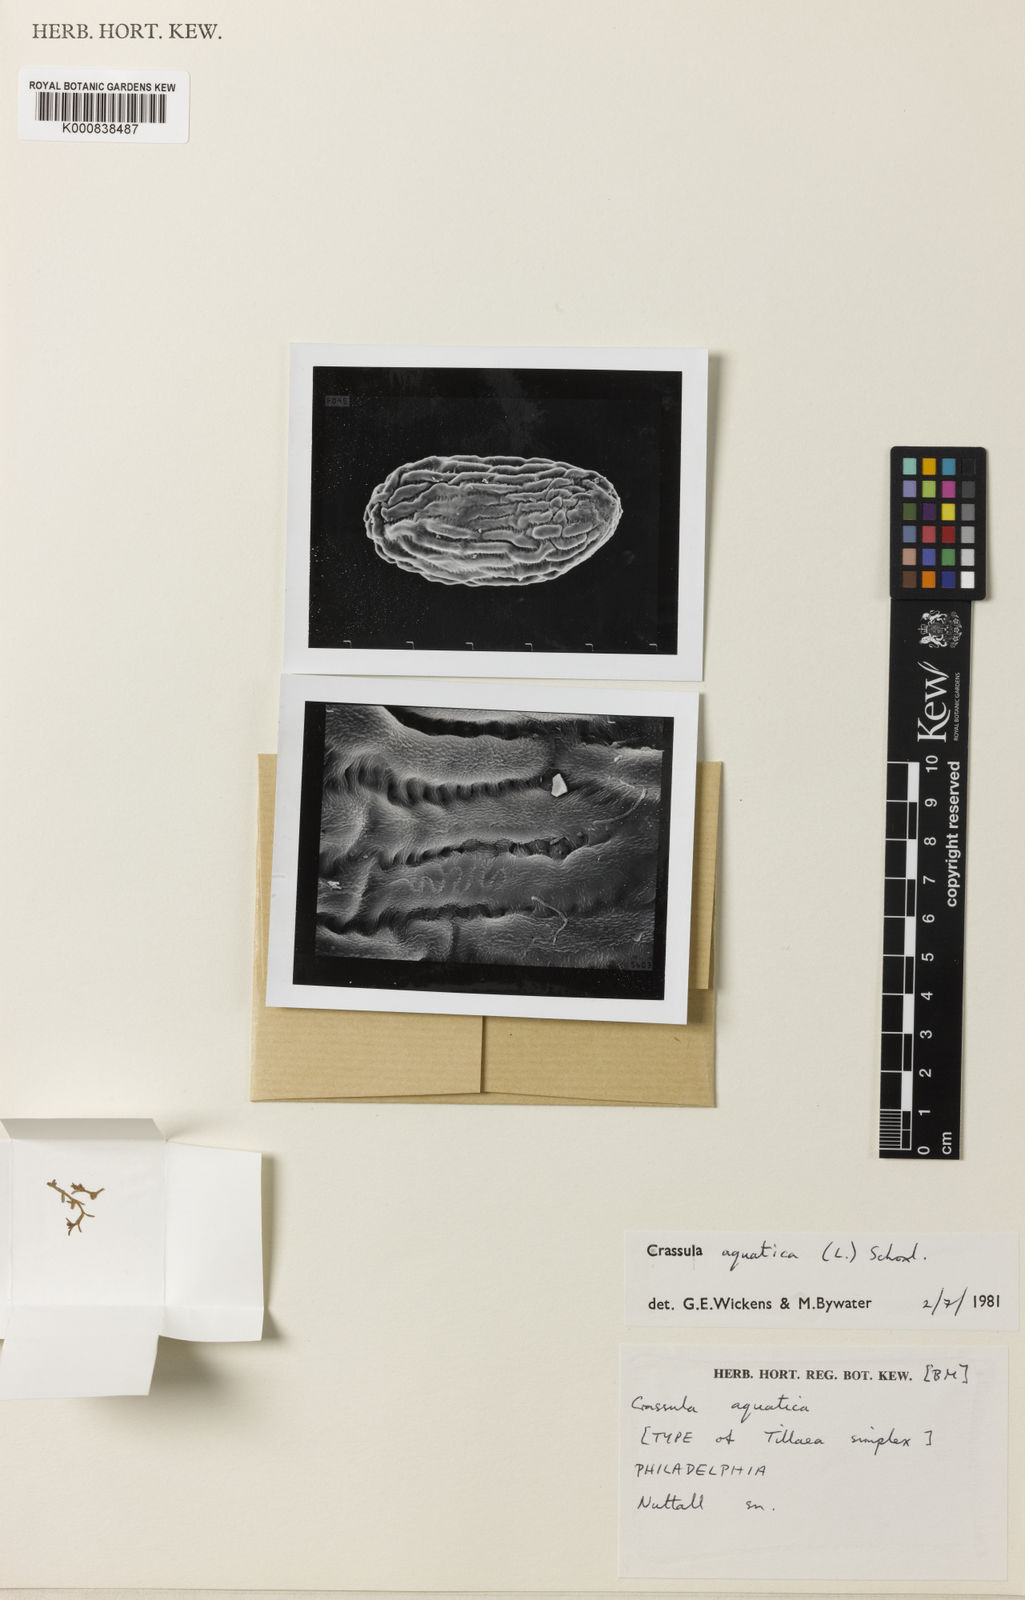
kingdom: Plantae
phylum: Tracheophyta
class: Magnoliopsida
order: Saxifragales
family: Crassulaceae
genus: Crassula
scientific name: Crassula
